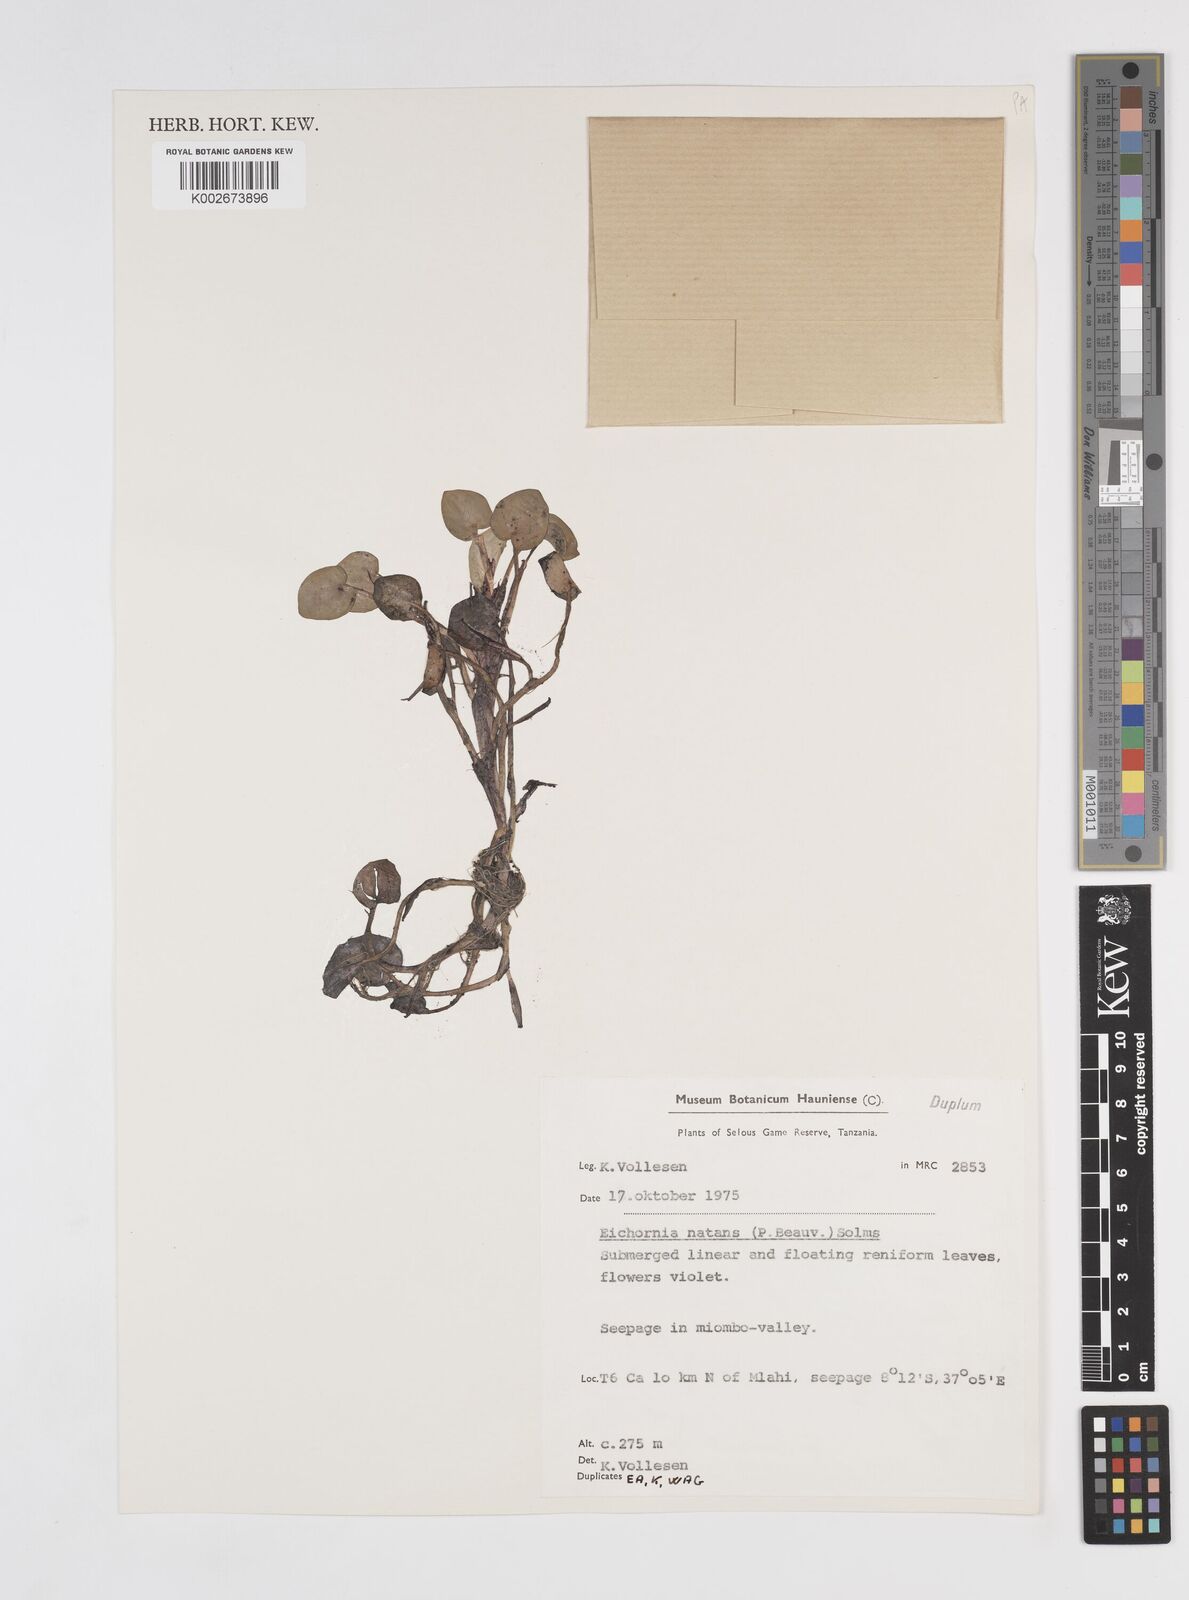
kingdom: Plantae
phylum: Tracheophyta
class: Liliopsida
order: Commelinales
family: Pontederiaceae
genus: Pontederia
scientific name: Pontederia diversifolia
